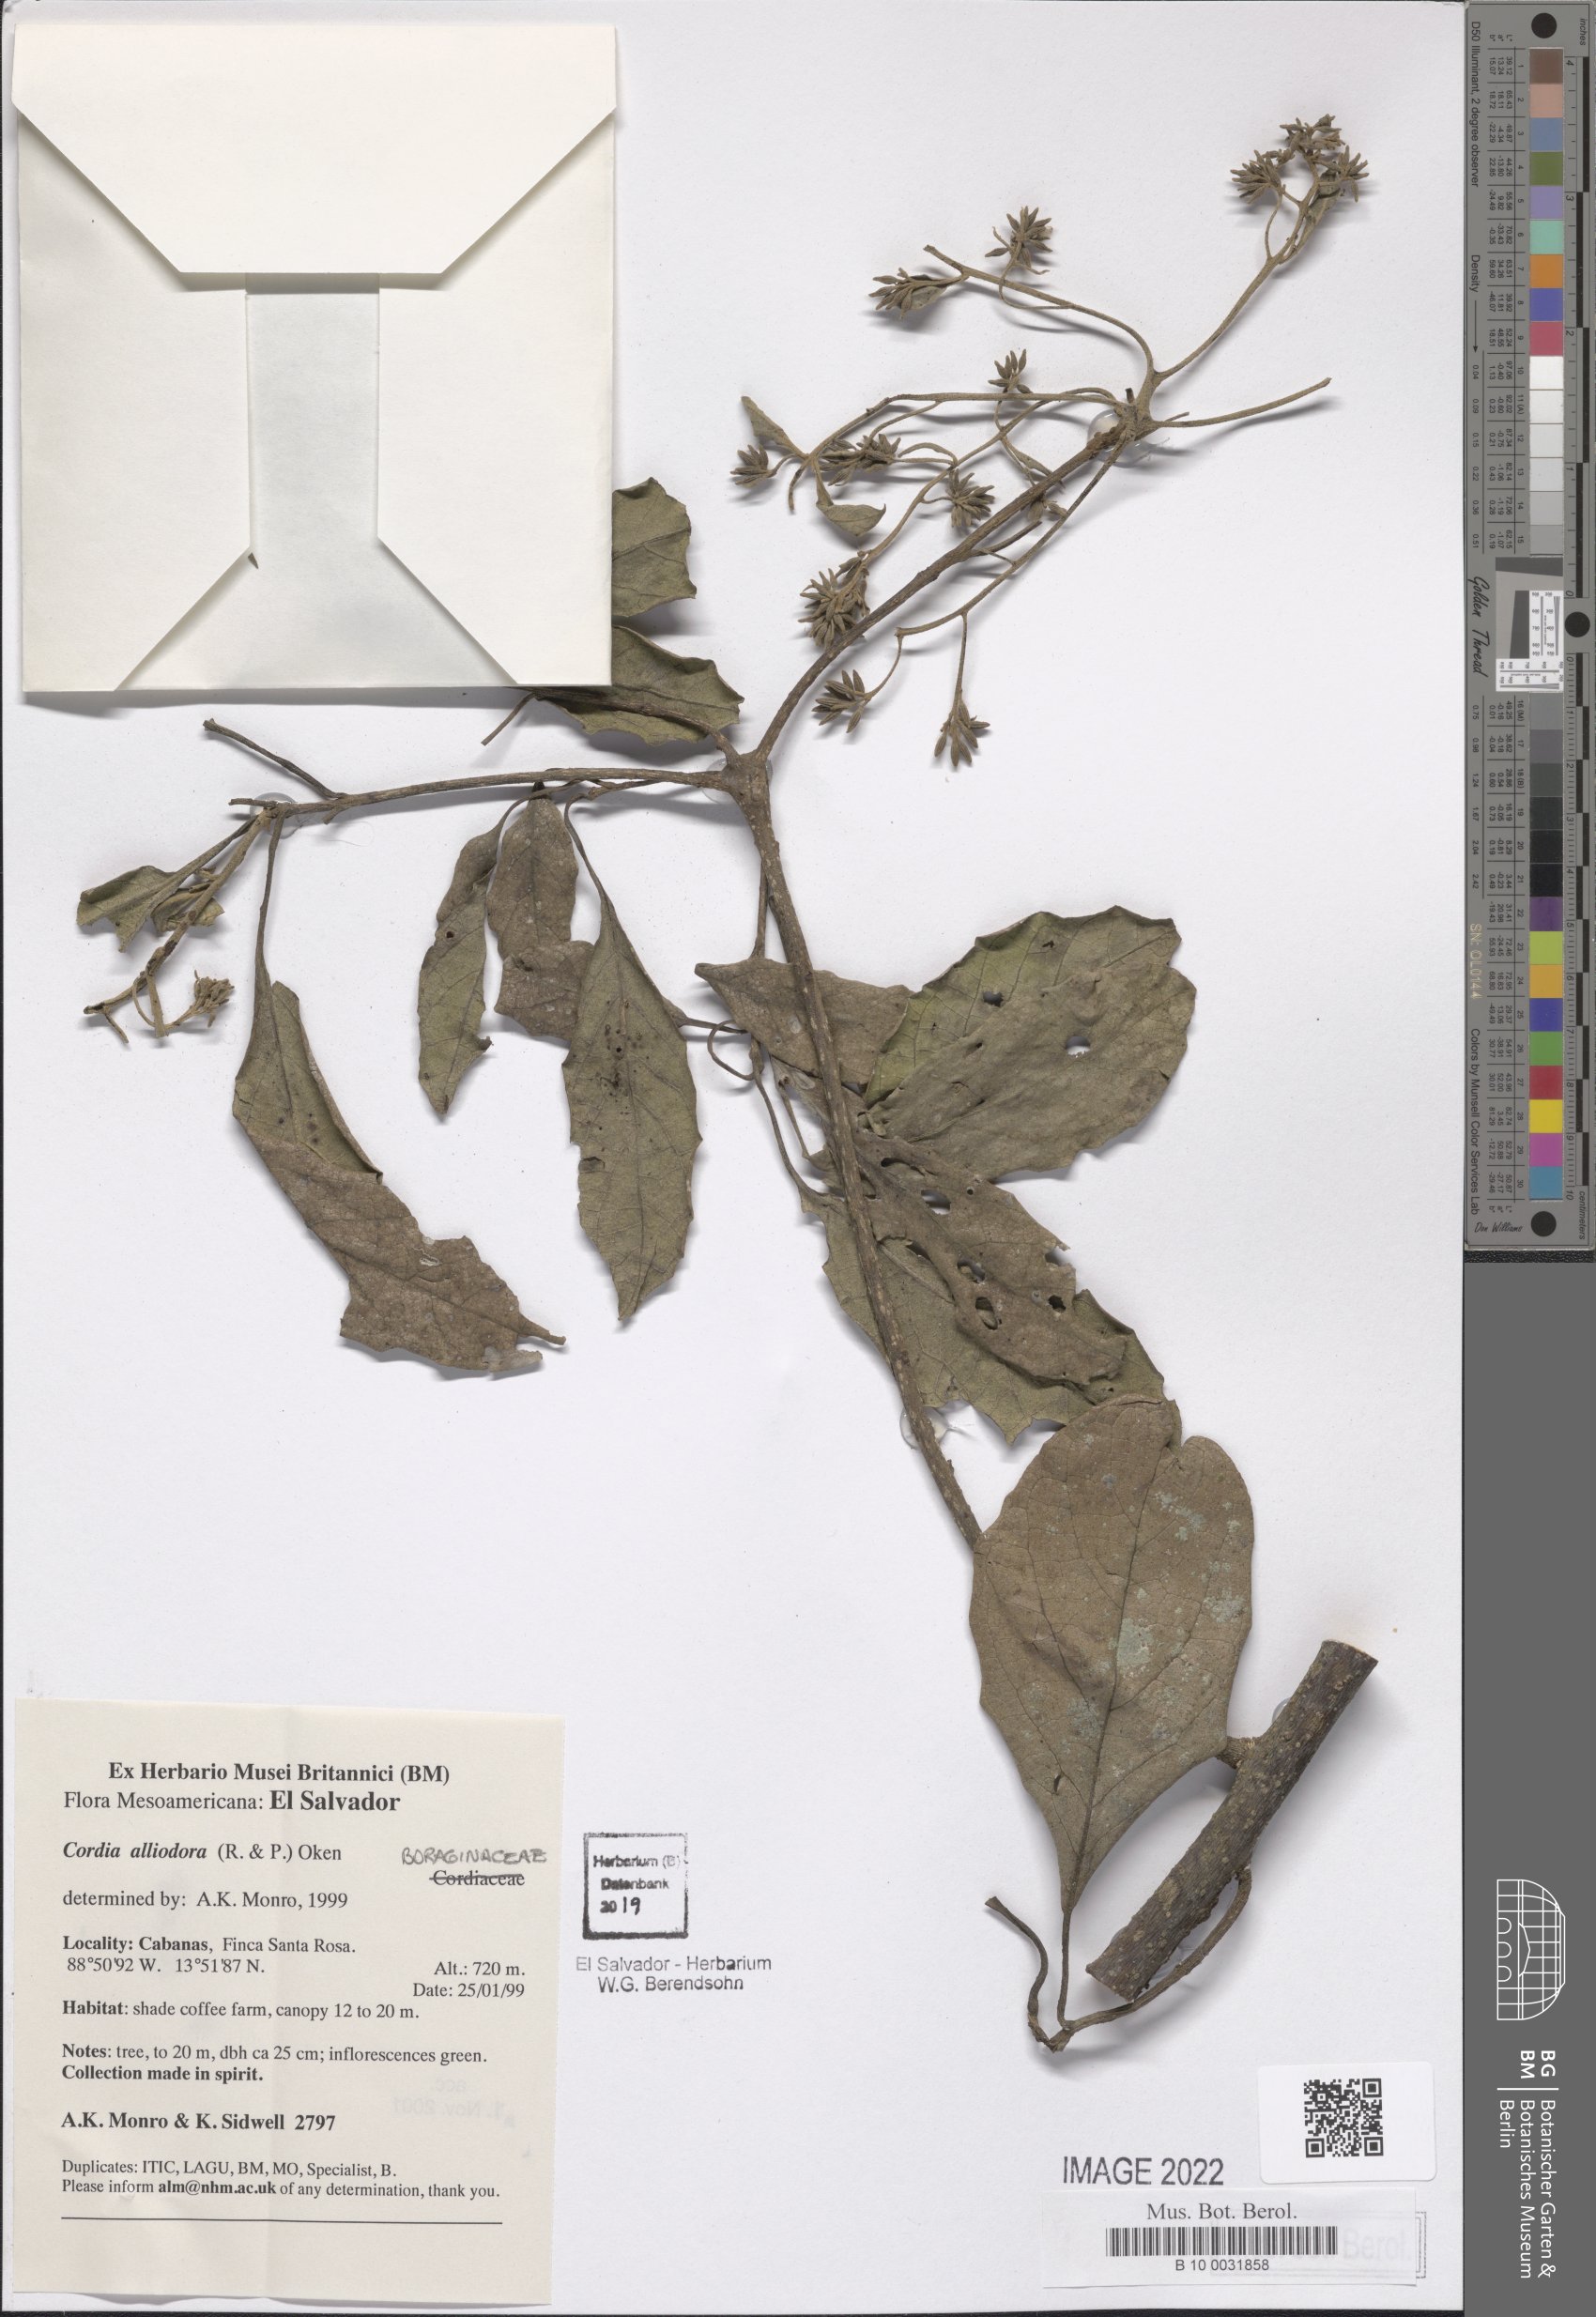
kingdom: Plantae
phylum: Tracheophyta
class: Magnoliopsida
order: Boraginales
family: Cordiaceae
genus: Cordia
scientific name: Cordia alliodora
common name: Spanish elm
